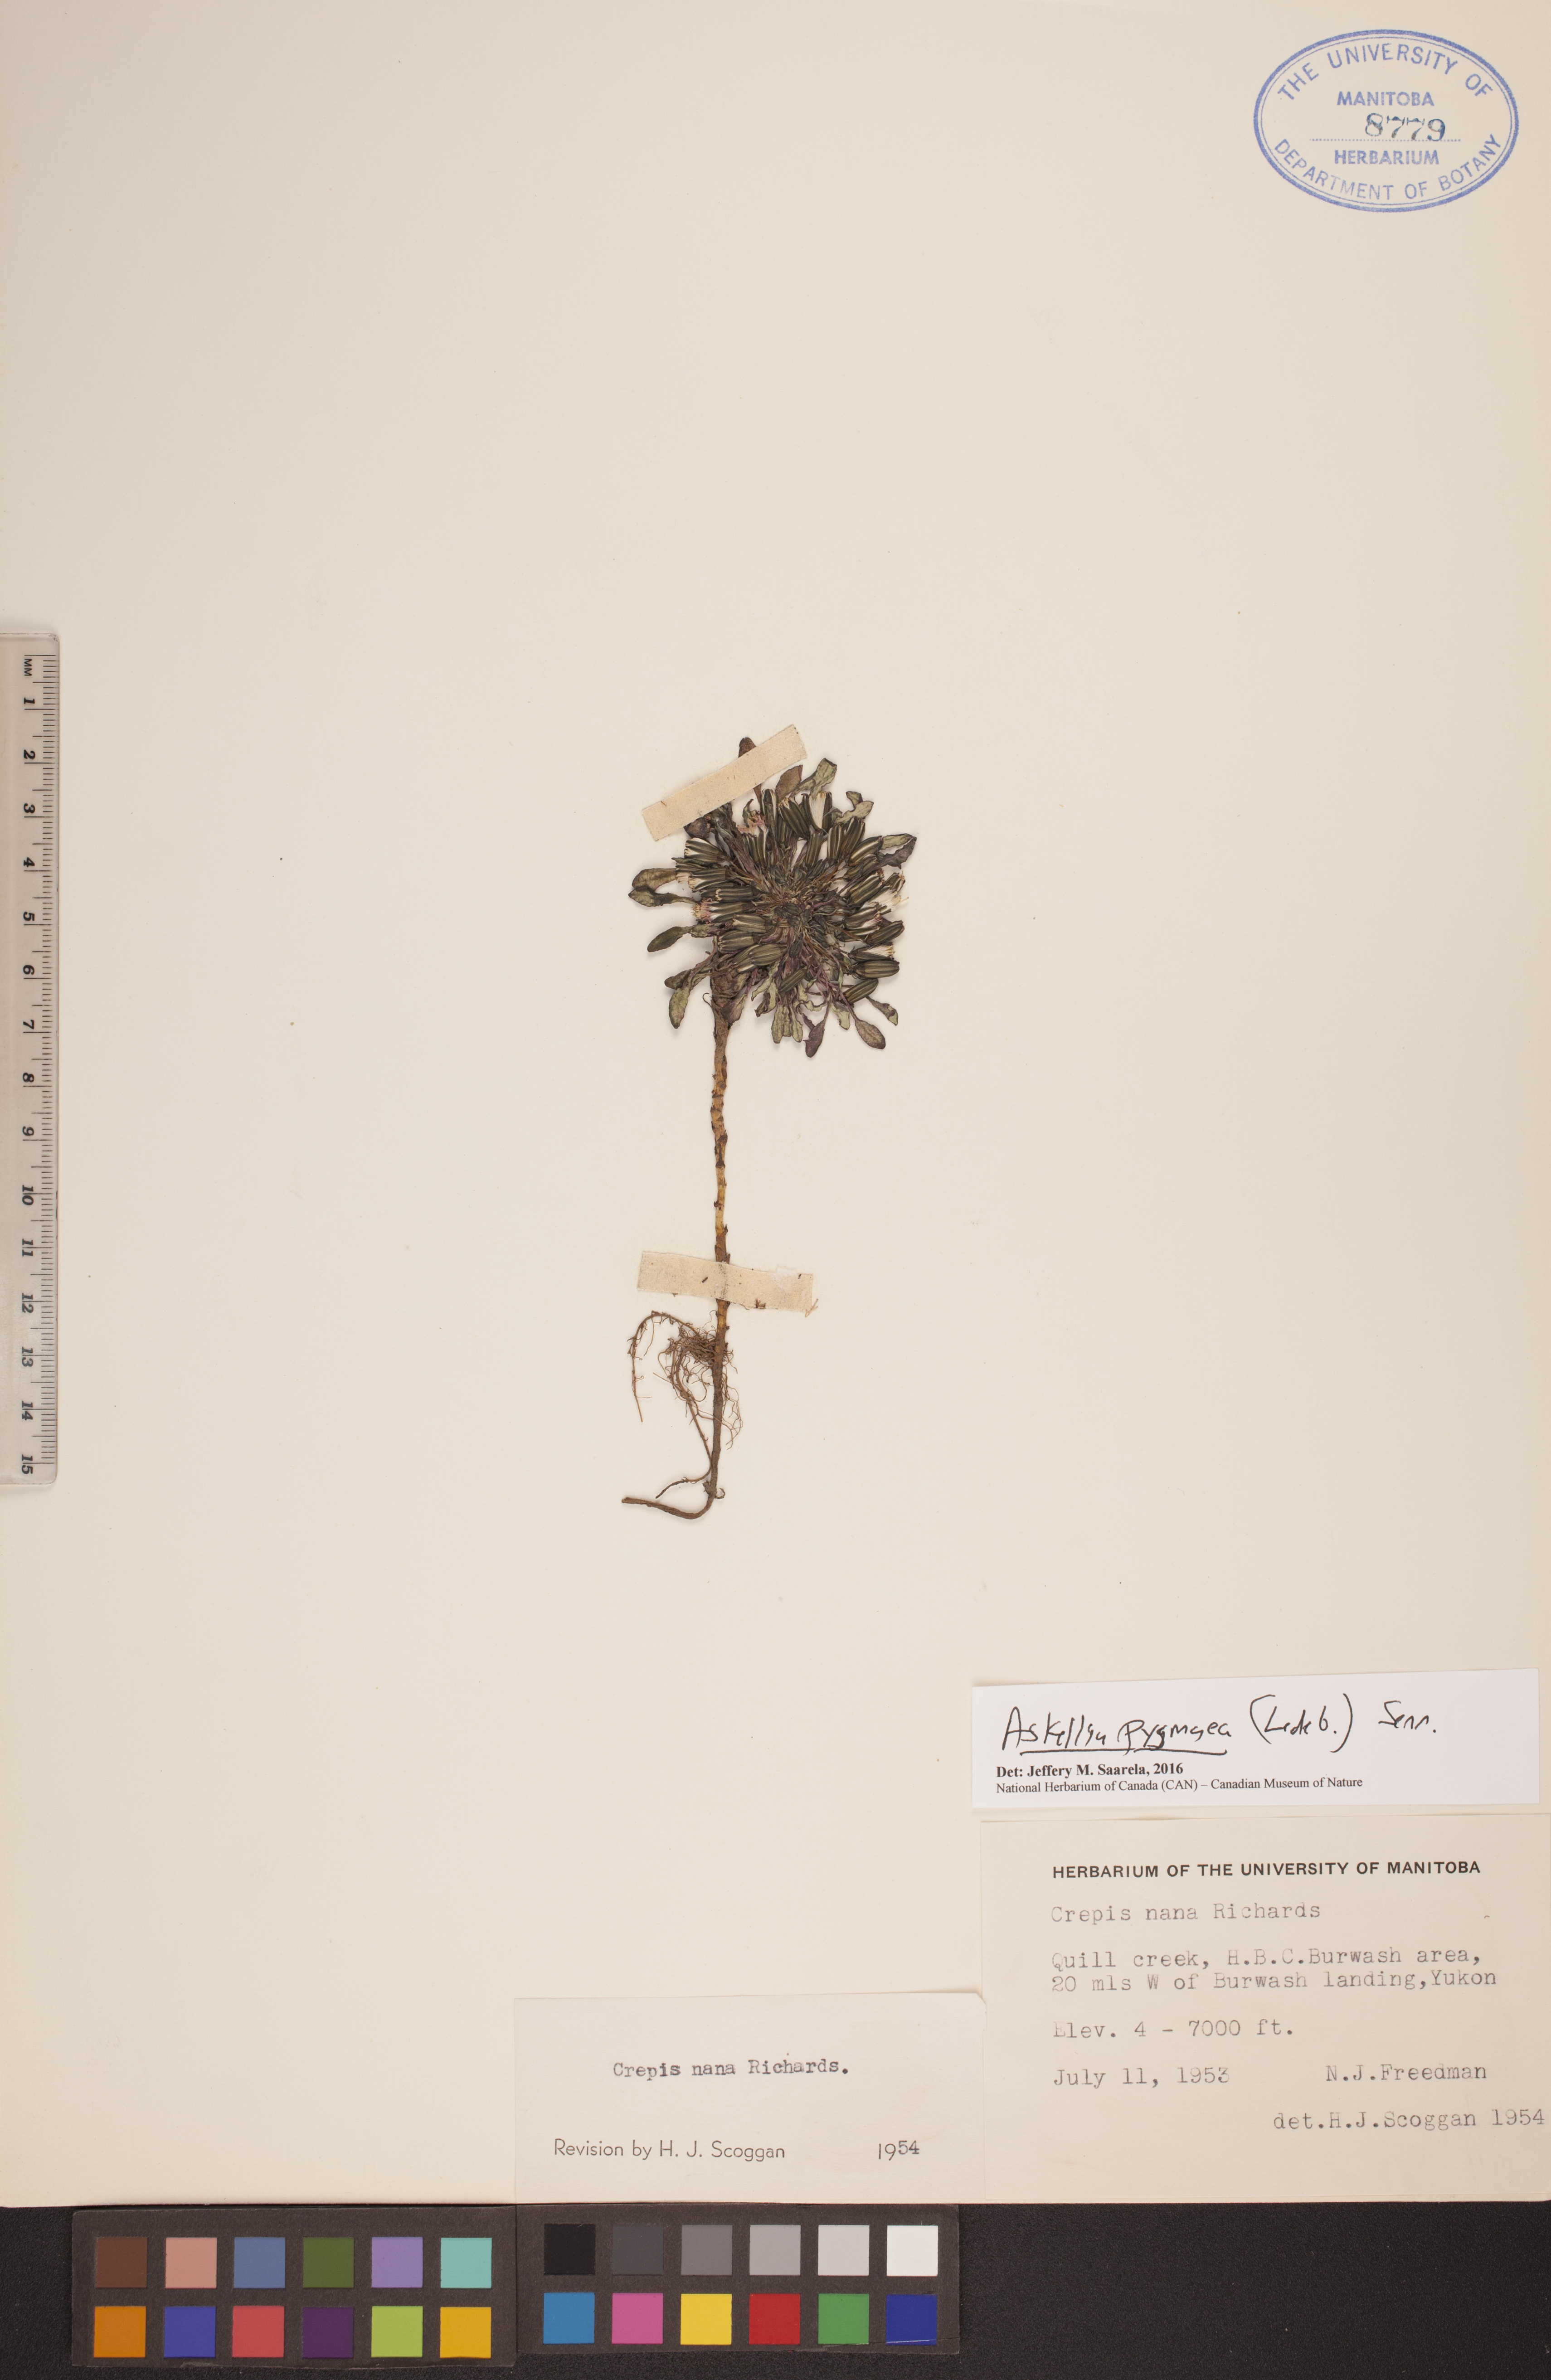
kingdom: Plantae
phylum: Tracheophyta
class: Magnoliopsida
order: Asterales
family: Asteraceae
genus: Askellia
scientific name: Askellia pygmaea
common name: Dwarf alpine hawksbeard
